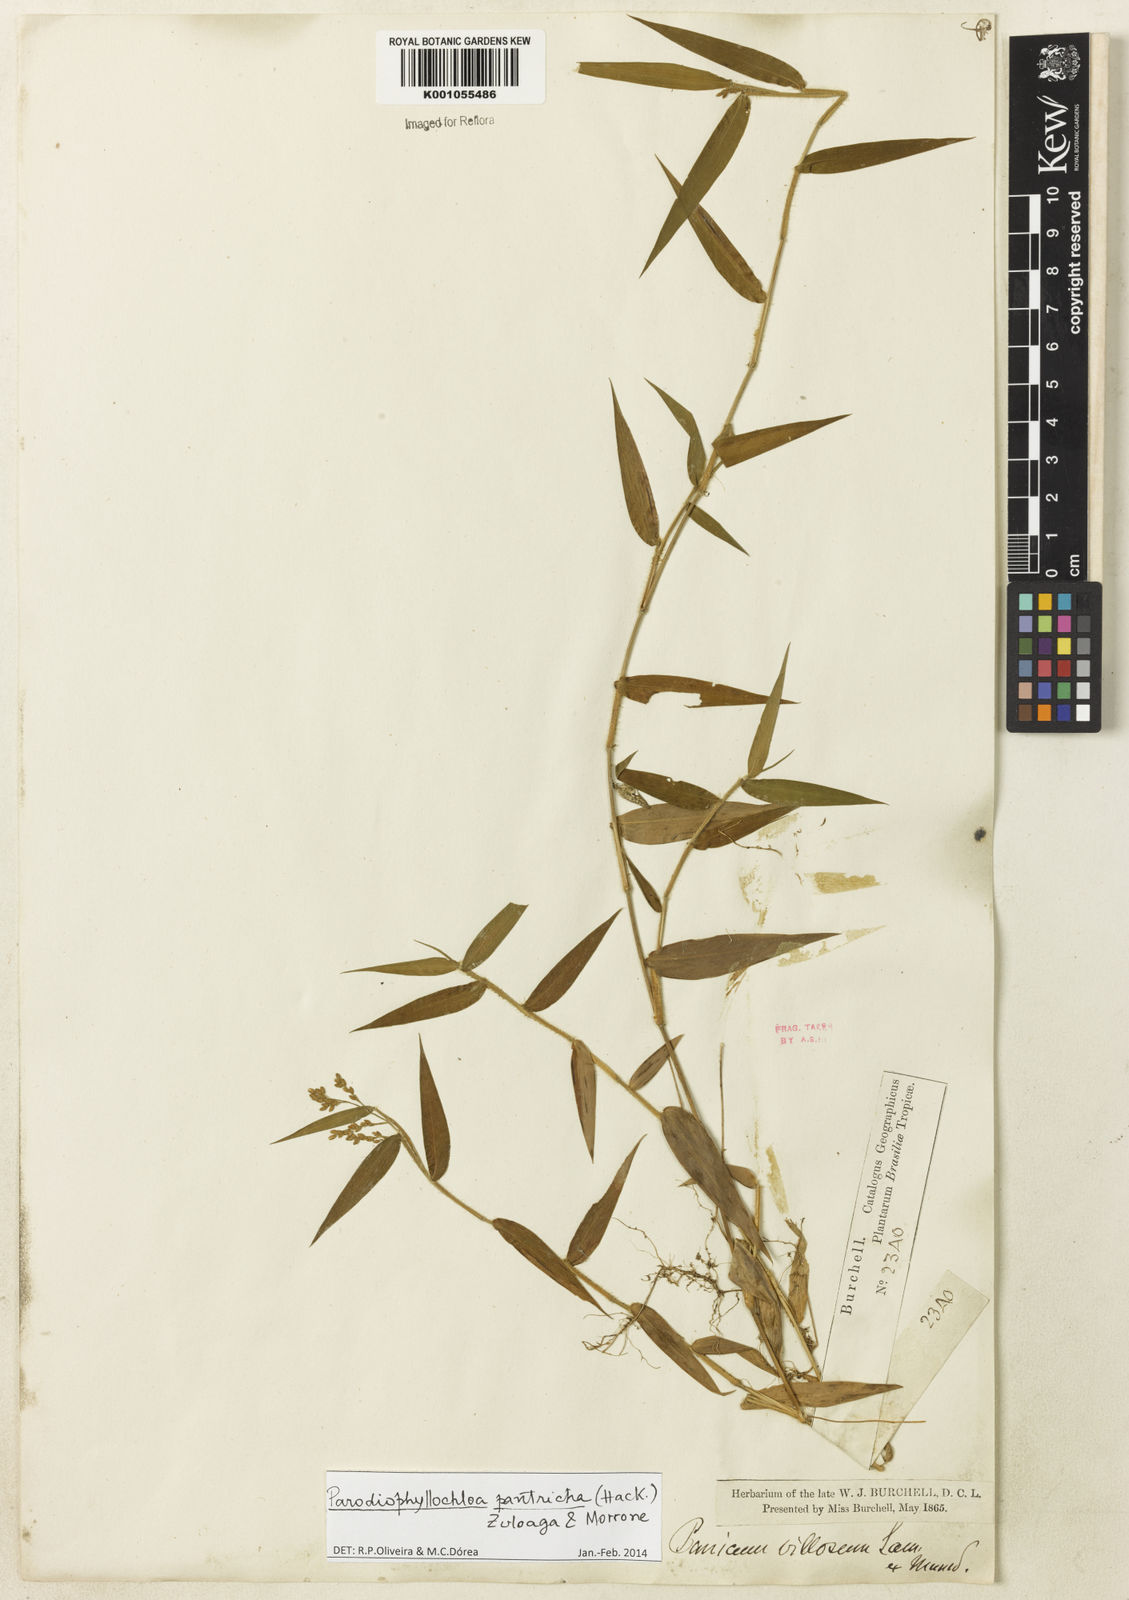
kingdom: Plantae
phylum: Tracheophyta
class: Liliopsida
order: Poales
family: Poaceae
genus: Parodiophyllochloa
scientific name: Parodiophyllochloa pantricha
